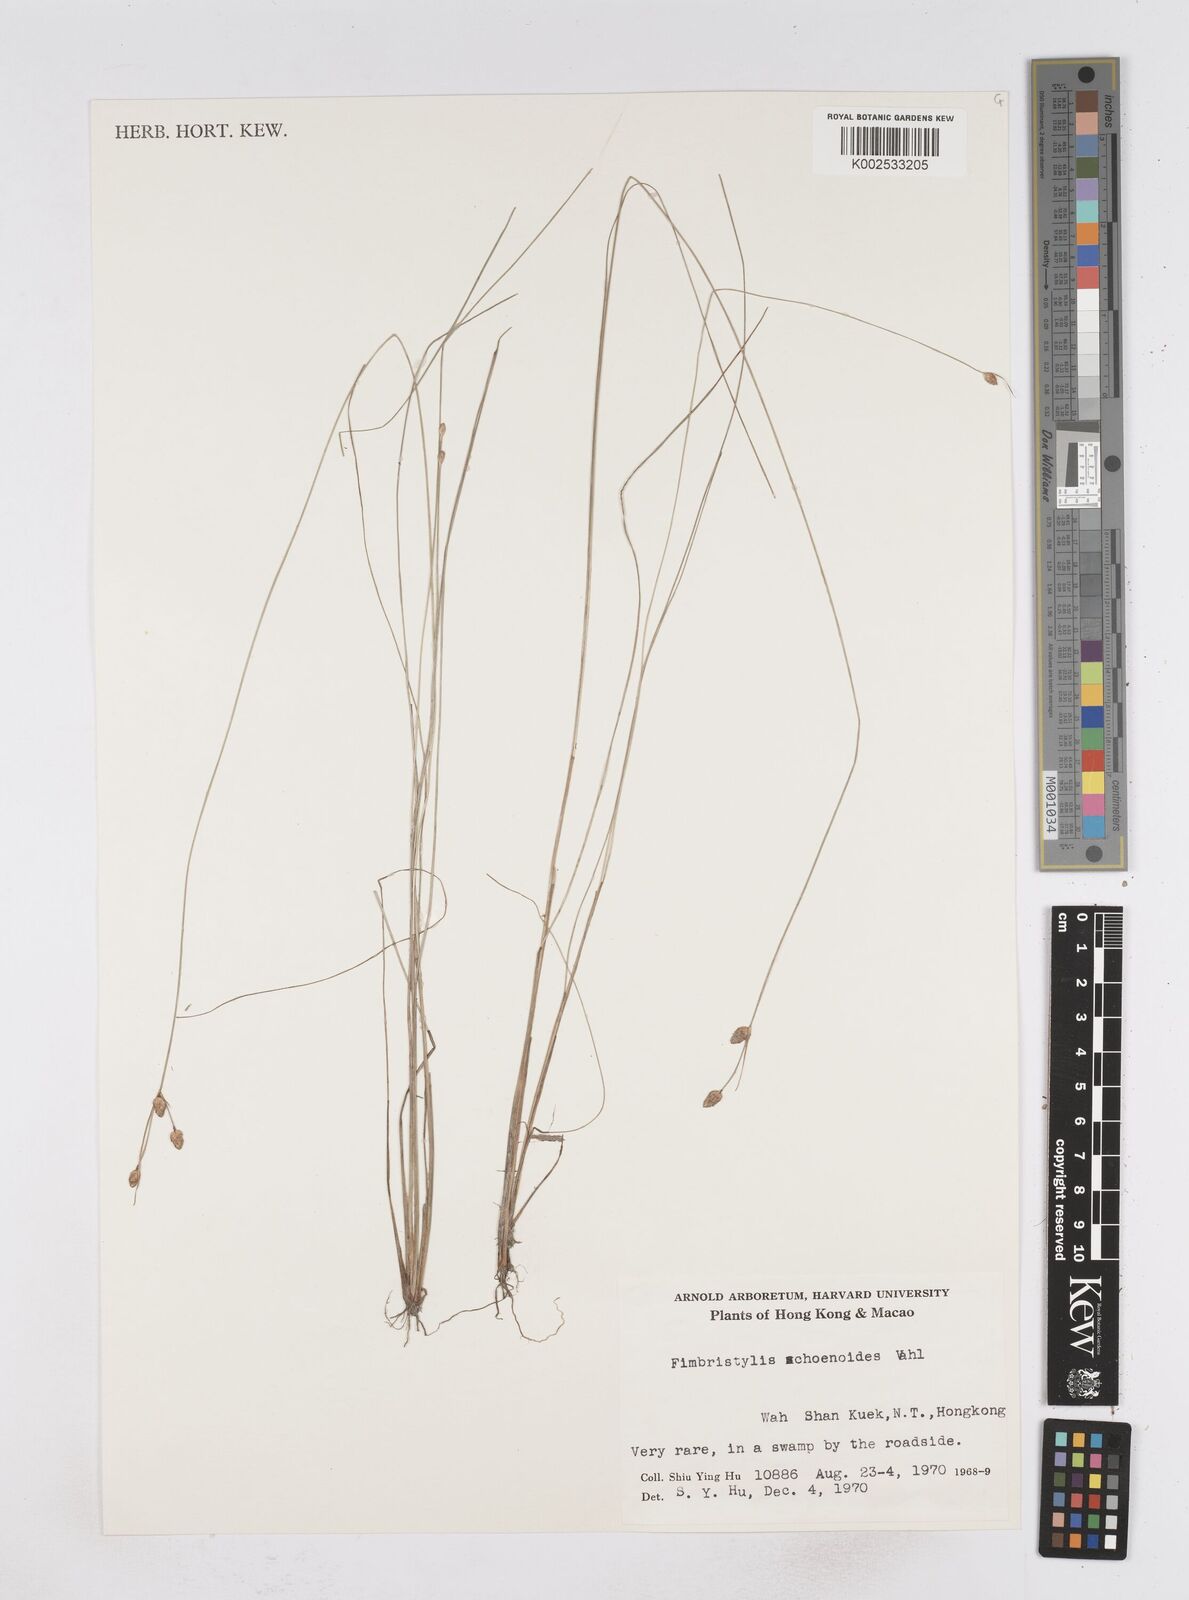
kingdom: Plantae
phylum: Tracheophyta
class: Liliopsida
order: Poales
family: Cyperaceae
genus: Fimbristylis
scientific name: Fimbristylis schoenoides
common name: Ditch fimbry
